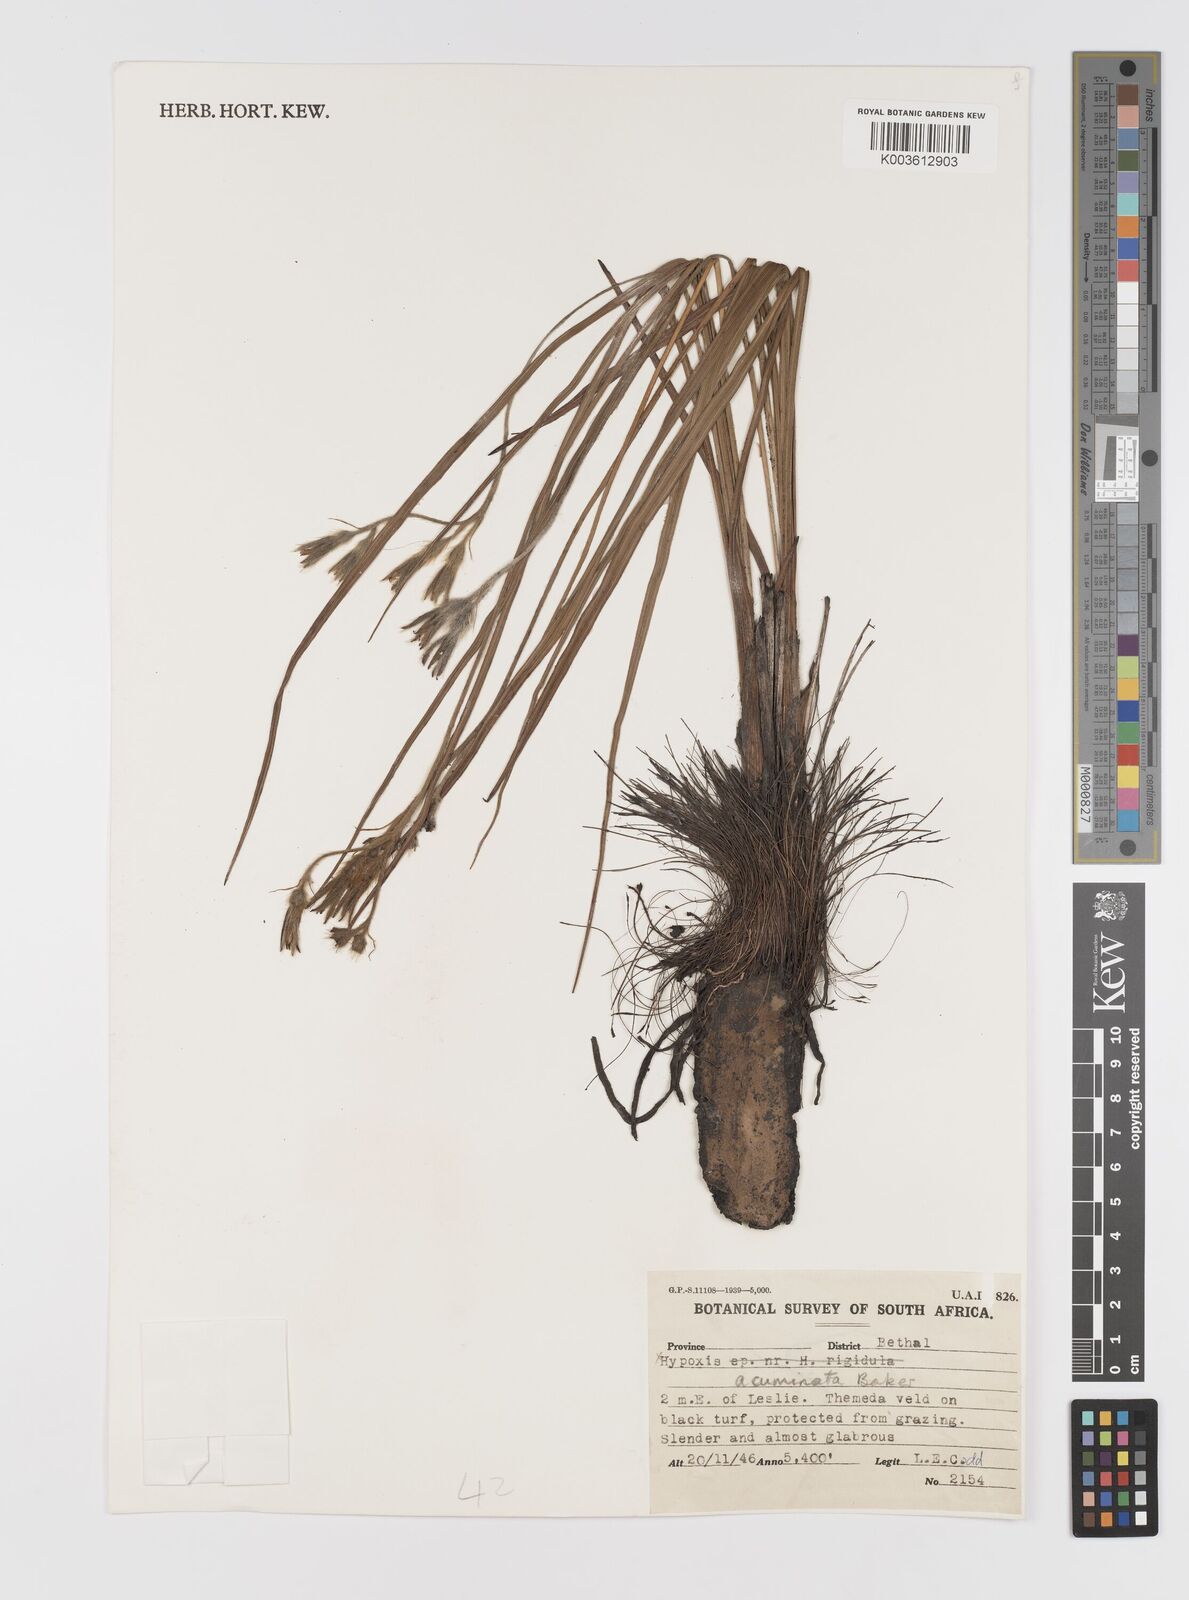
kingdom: Plantae
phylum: Tracheophyta
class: Liliopsida
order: Asparagales
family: Hypoxidaceae
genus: Hypoxis
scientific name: Hypoxis acuminata
